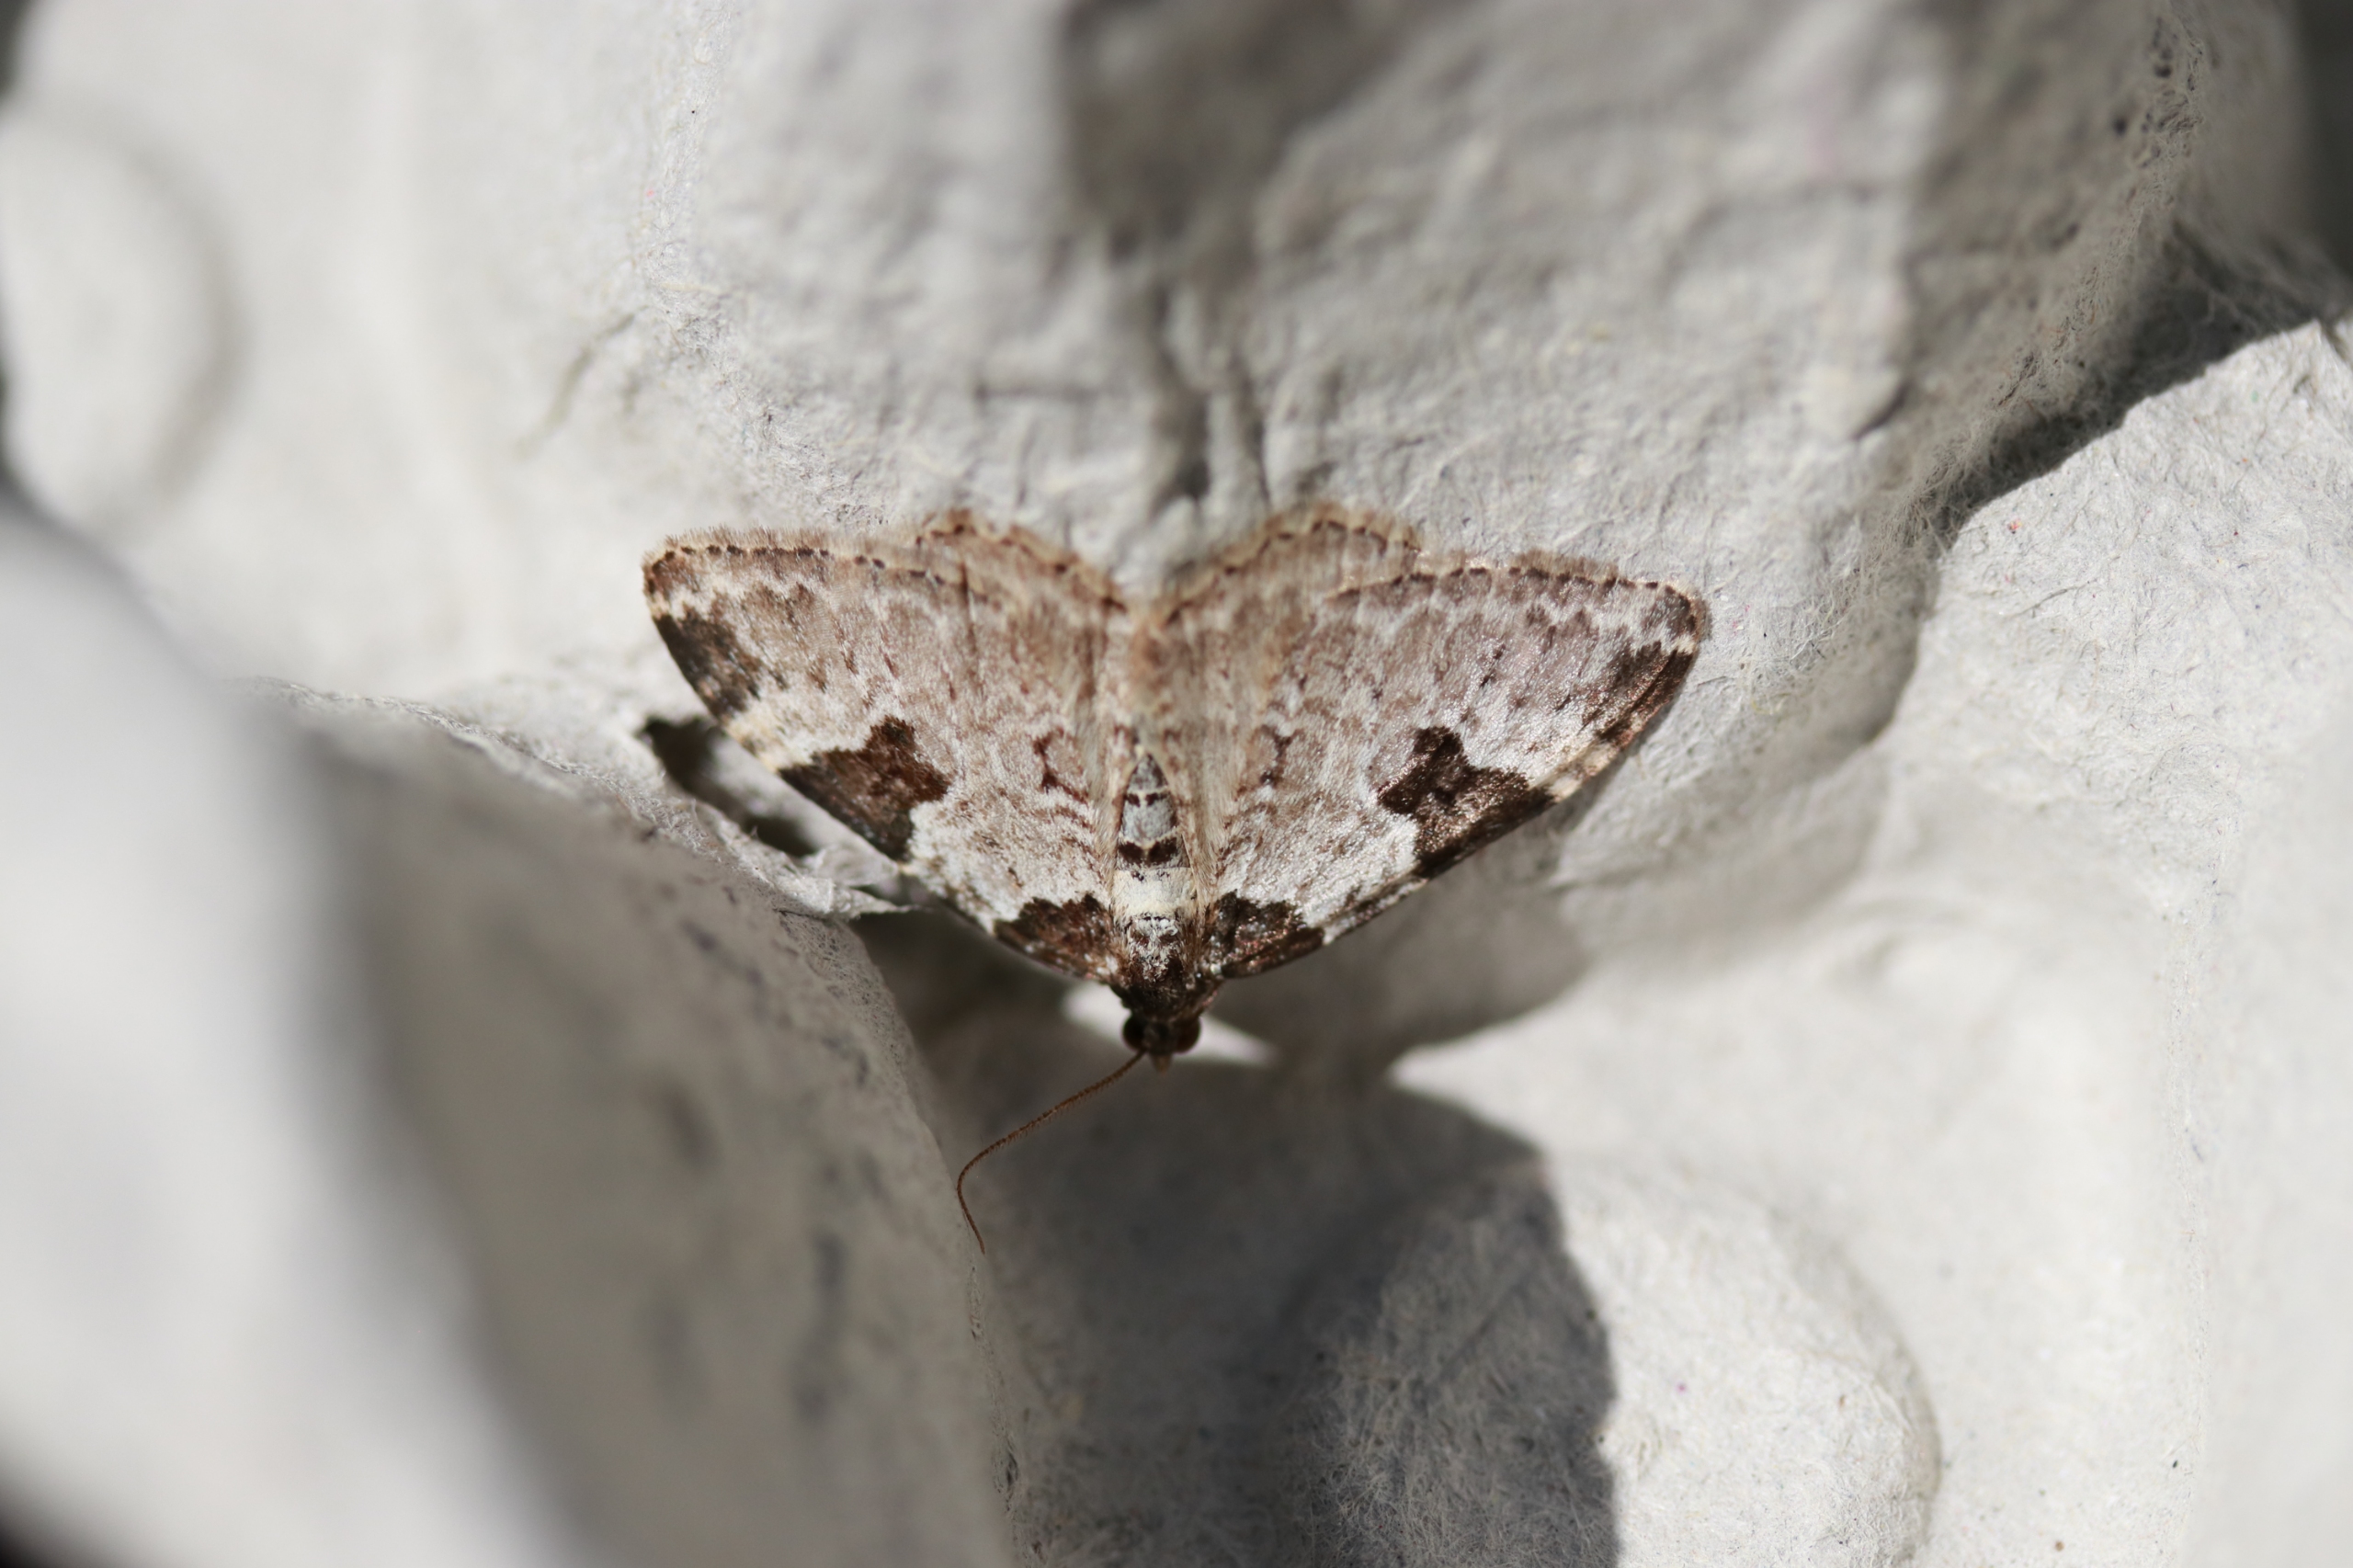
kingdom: Animalia
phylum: Arthropoda
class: Insecta
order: Lepidoptera
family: Geometridae
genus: Xanthorhoe
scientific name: Xanthorhoe fluctuata
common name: Sortbæltet bladmåler
